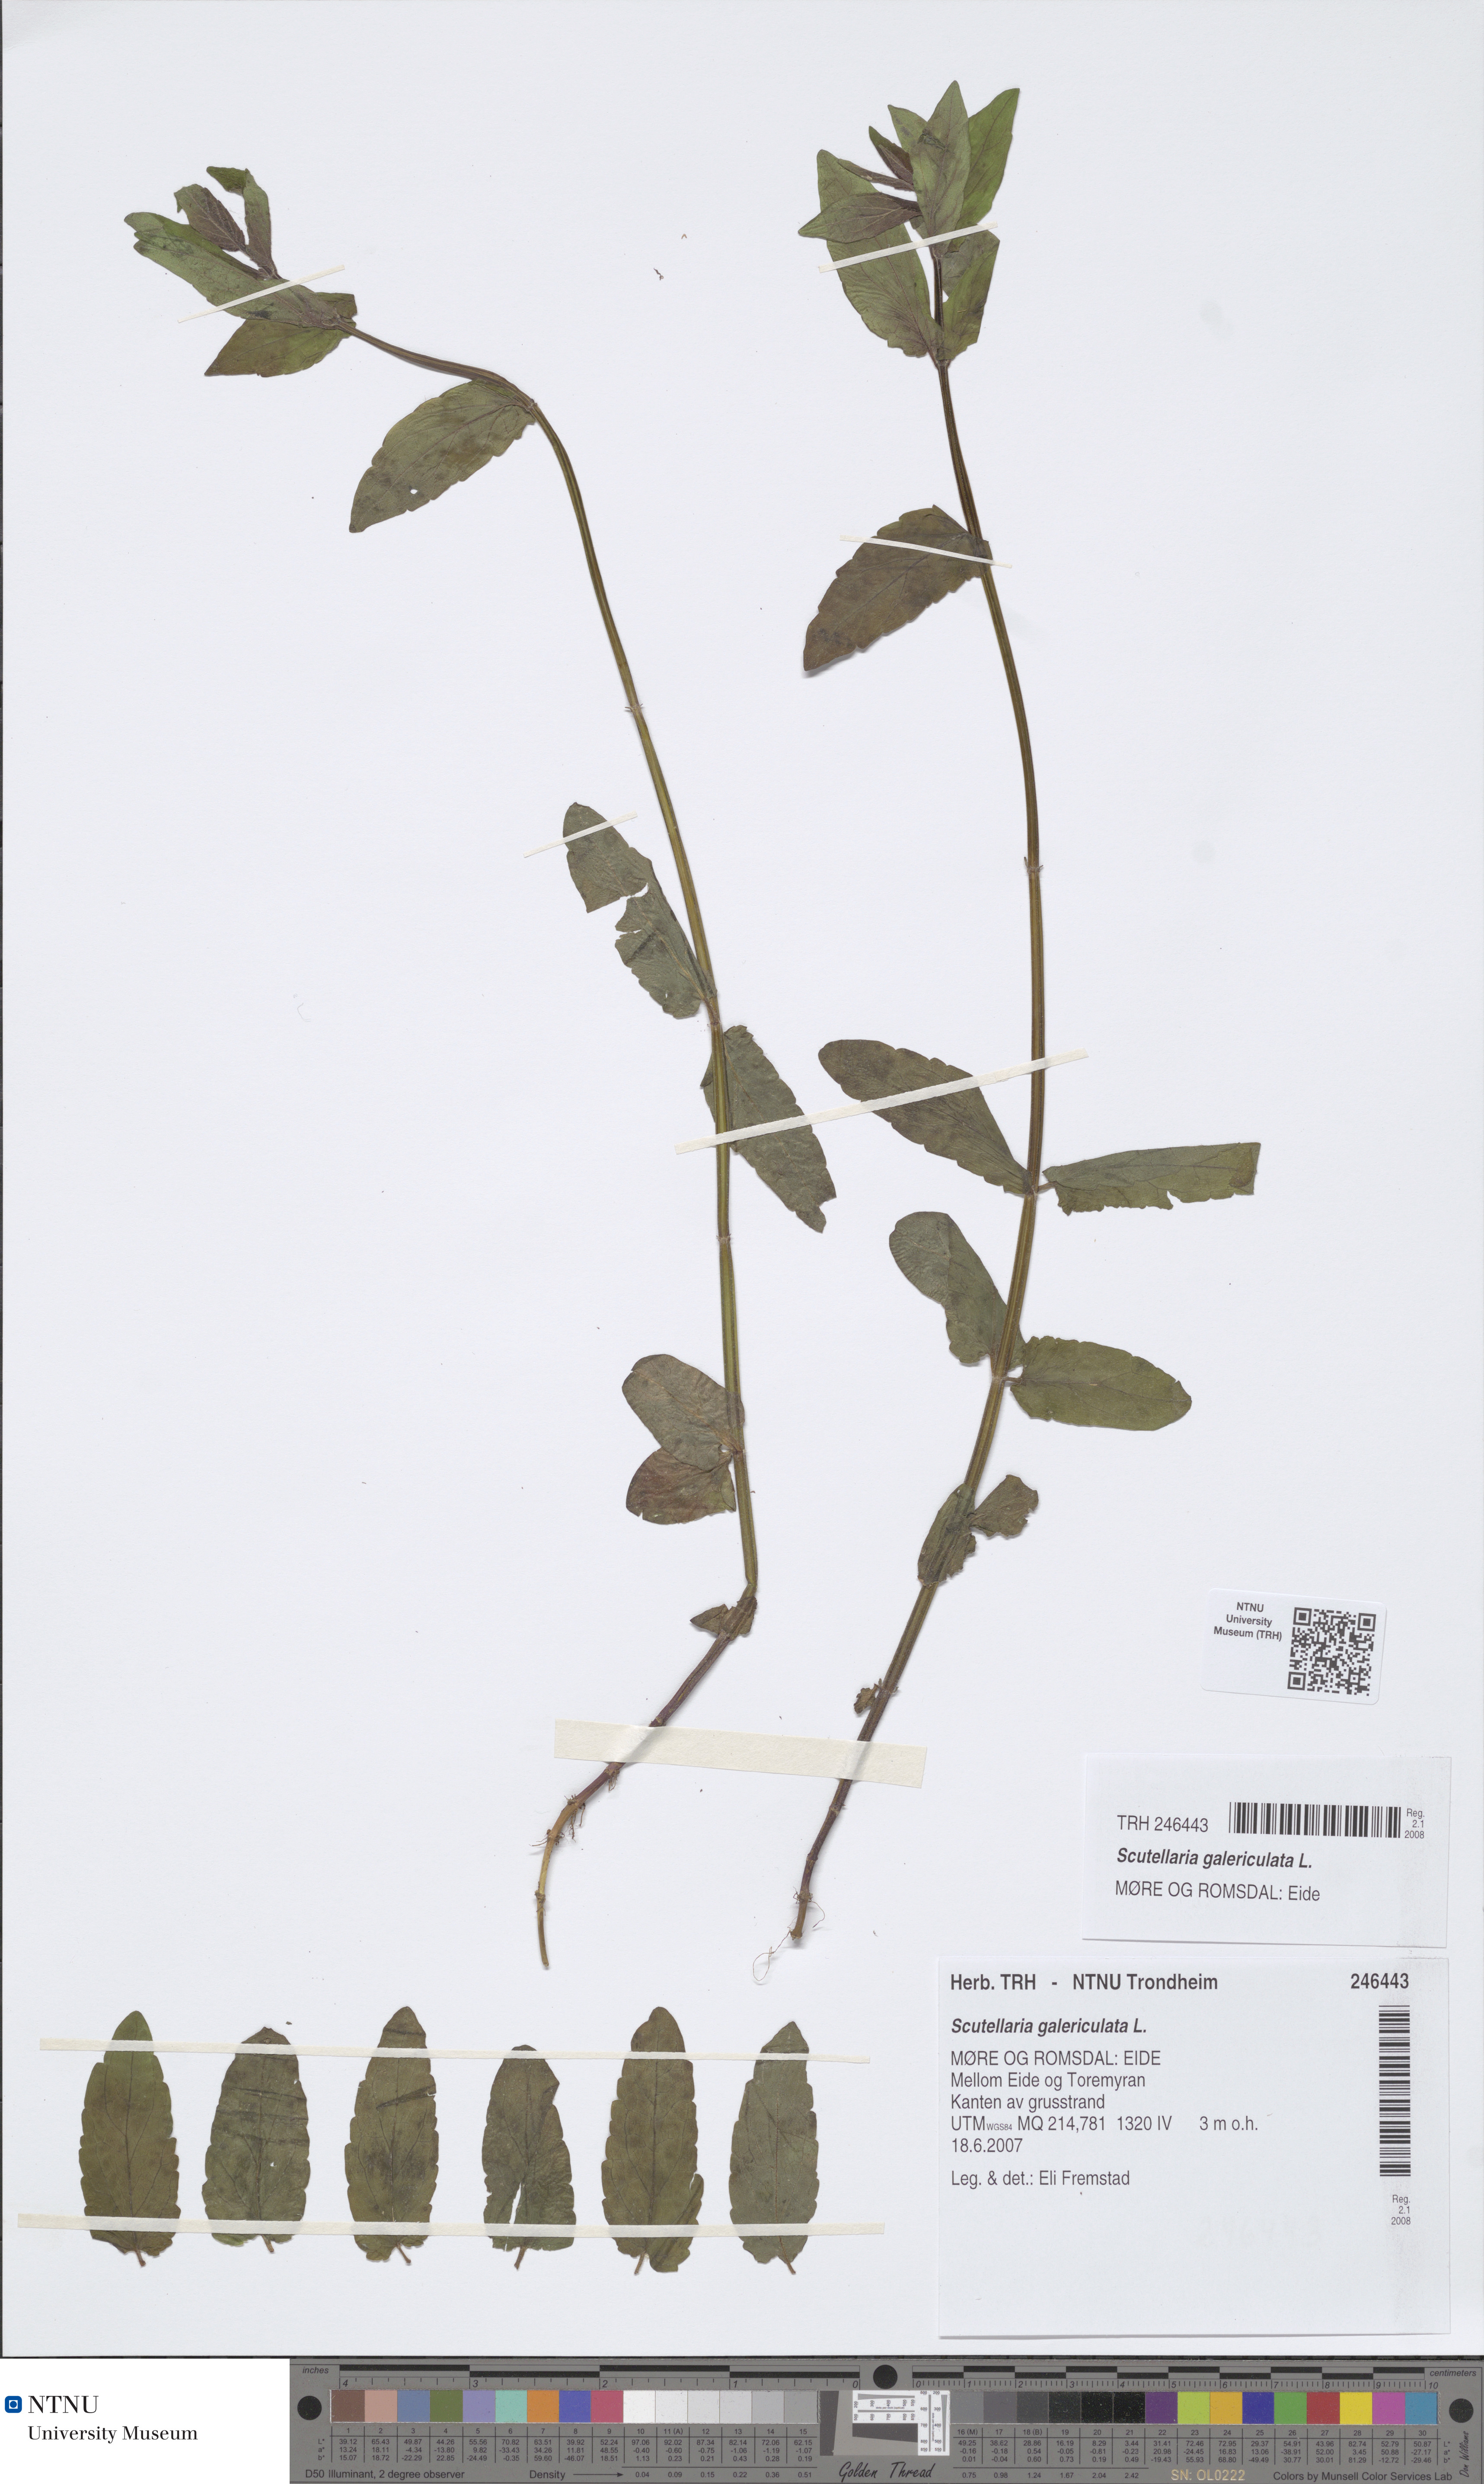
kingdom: Plantae
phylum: Tracheophyta
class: Magnoliopsida
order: Lamiales
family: Lamiaceae
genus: Scutellaria
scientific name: Scutellaria galericulata
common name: Skullcap
